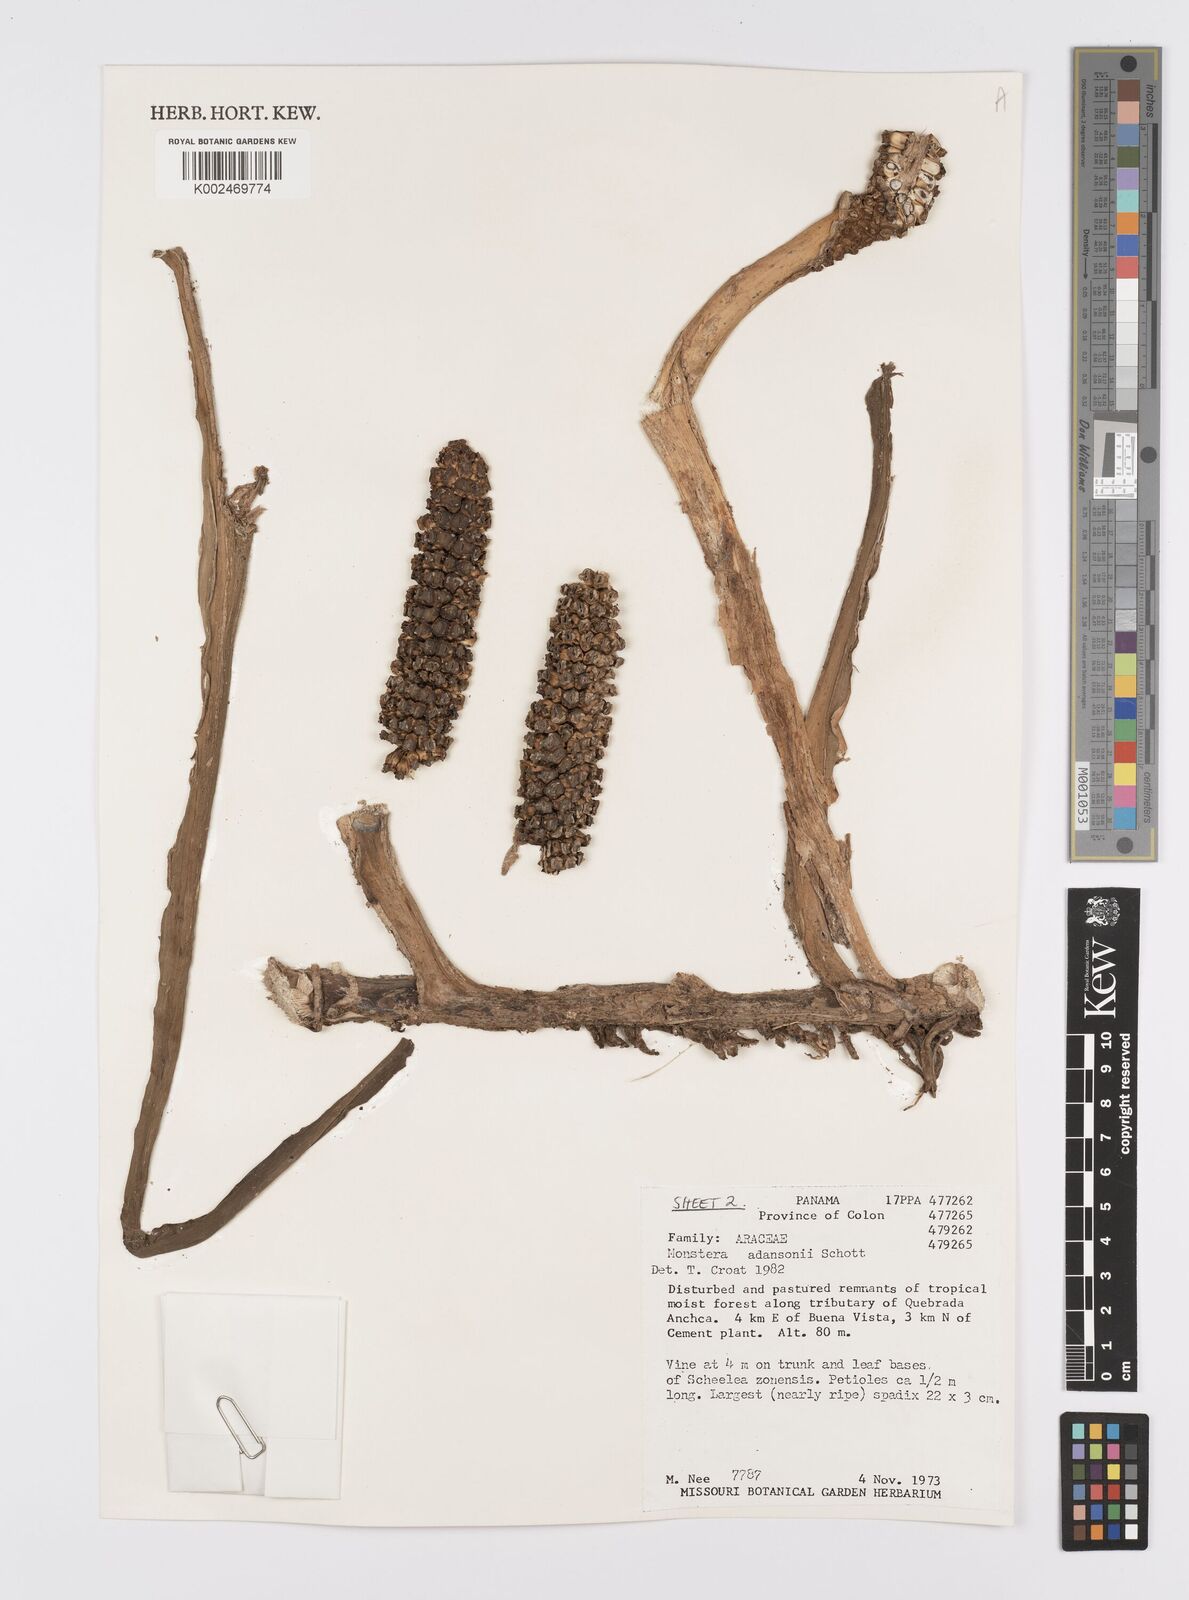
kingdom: Plantae
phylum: Tracheophyta
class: Liliopsida
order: Alismatales
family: Araceae
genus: Monstera
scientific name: Monstera adansonii
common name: Tarovine
